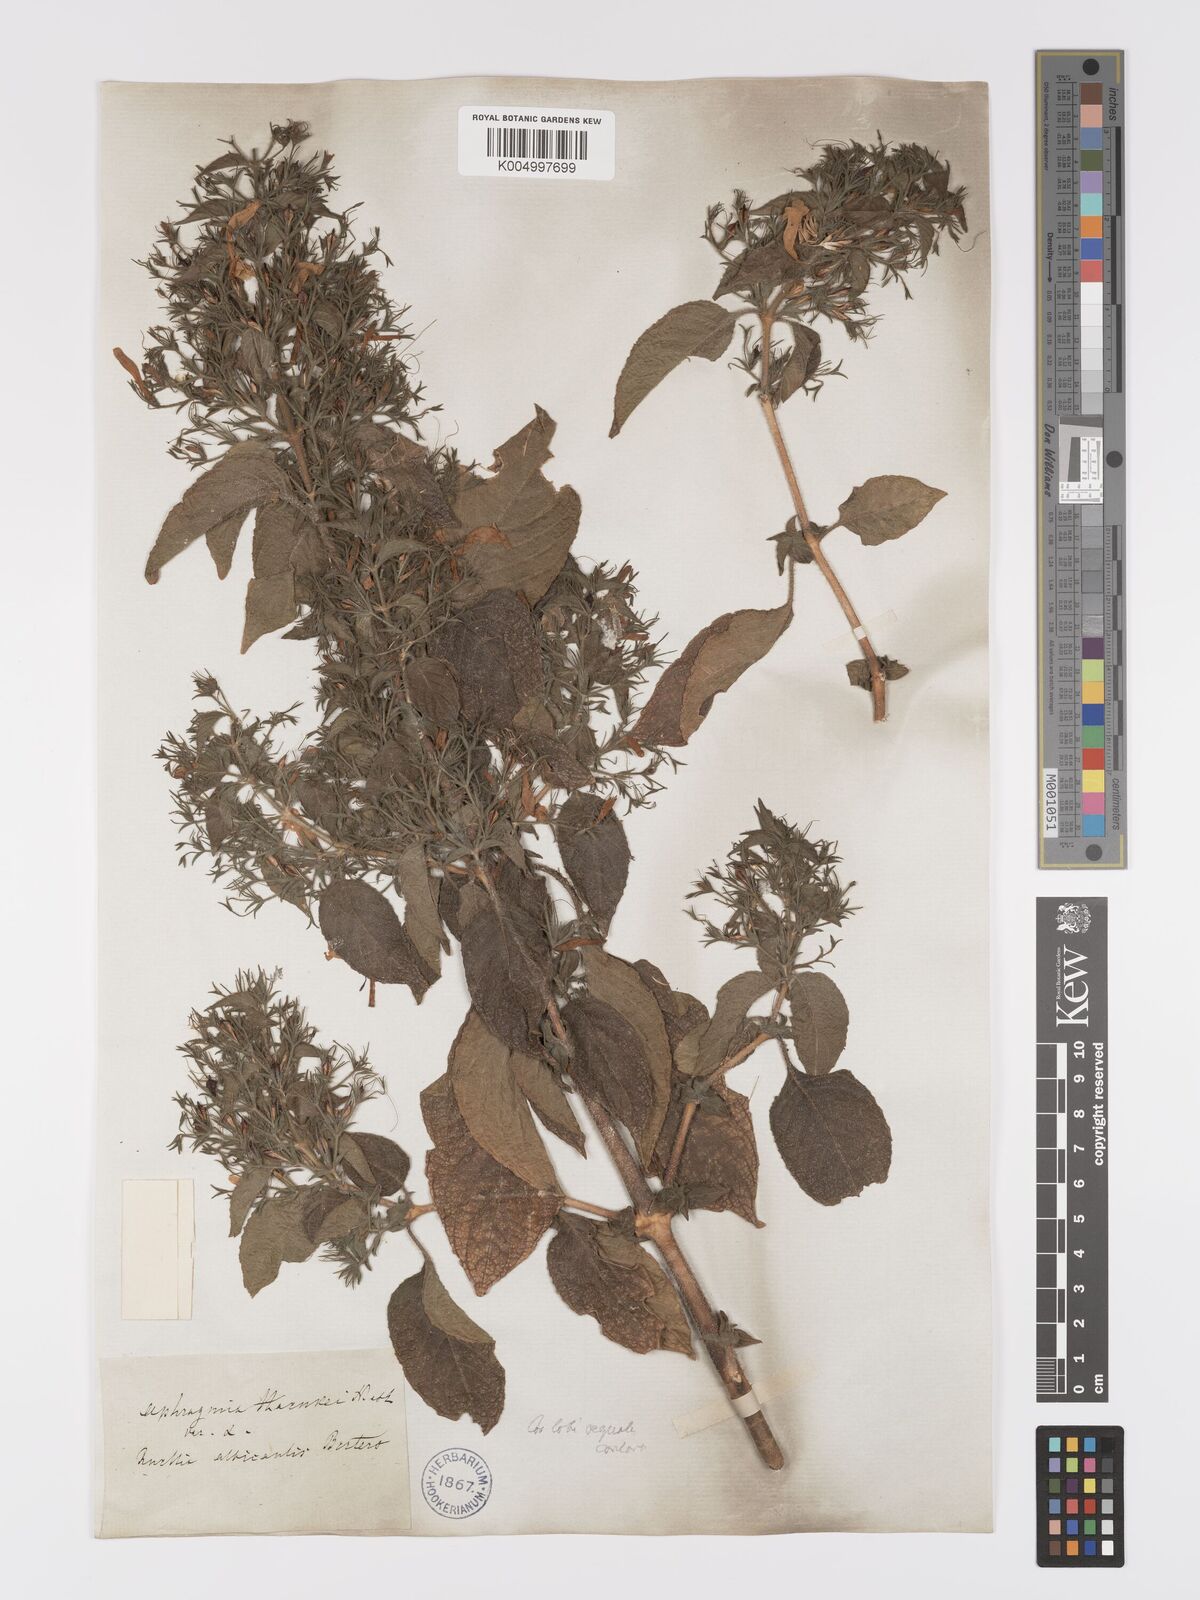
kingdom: Plantae
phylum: Tracheophyta
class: Magnoliopsida
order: Lamiales
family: Acanthaceae
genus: Ruellia
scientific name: Ruellia inundata
